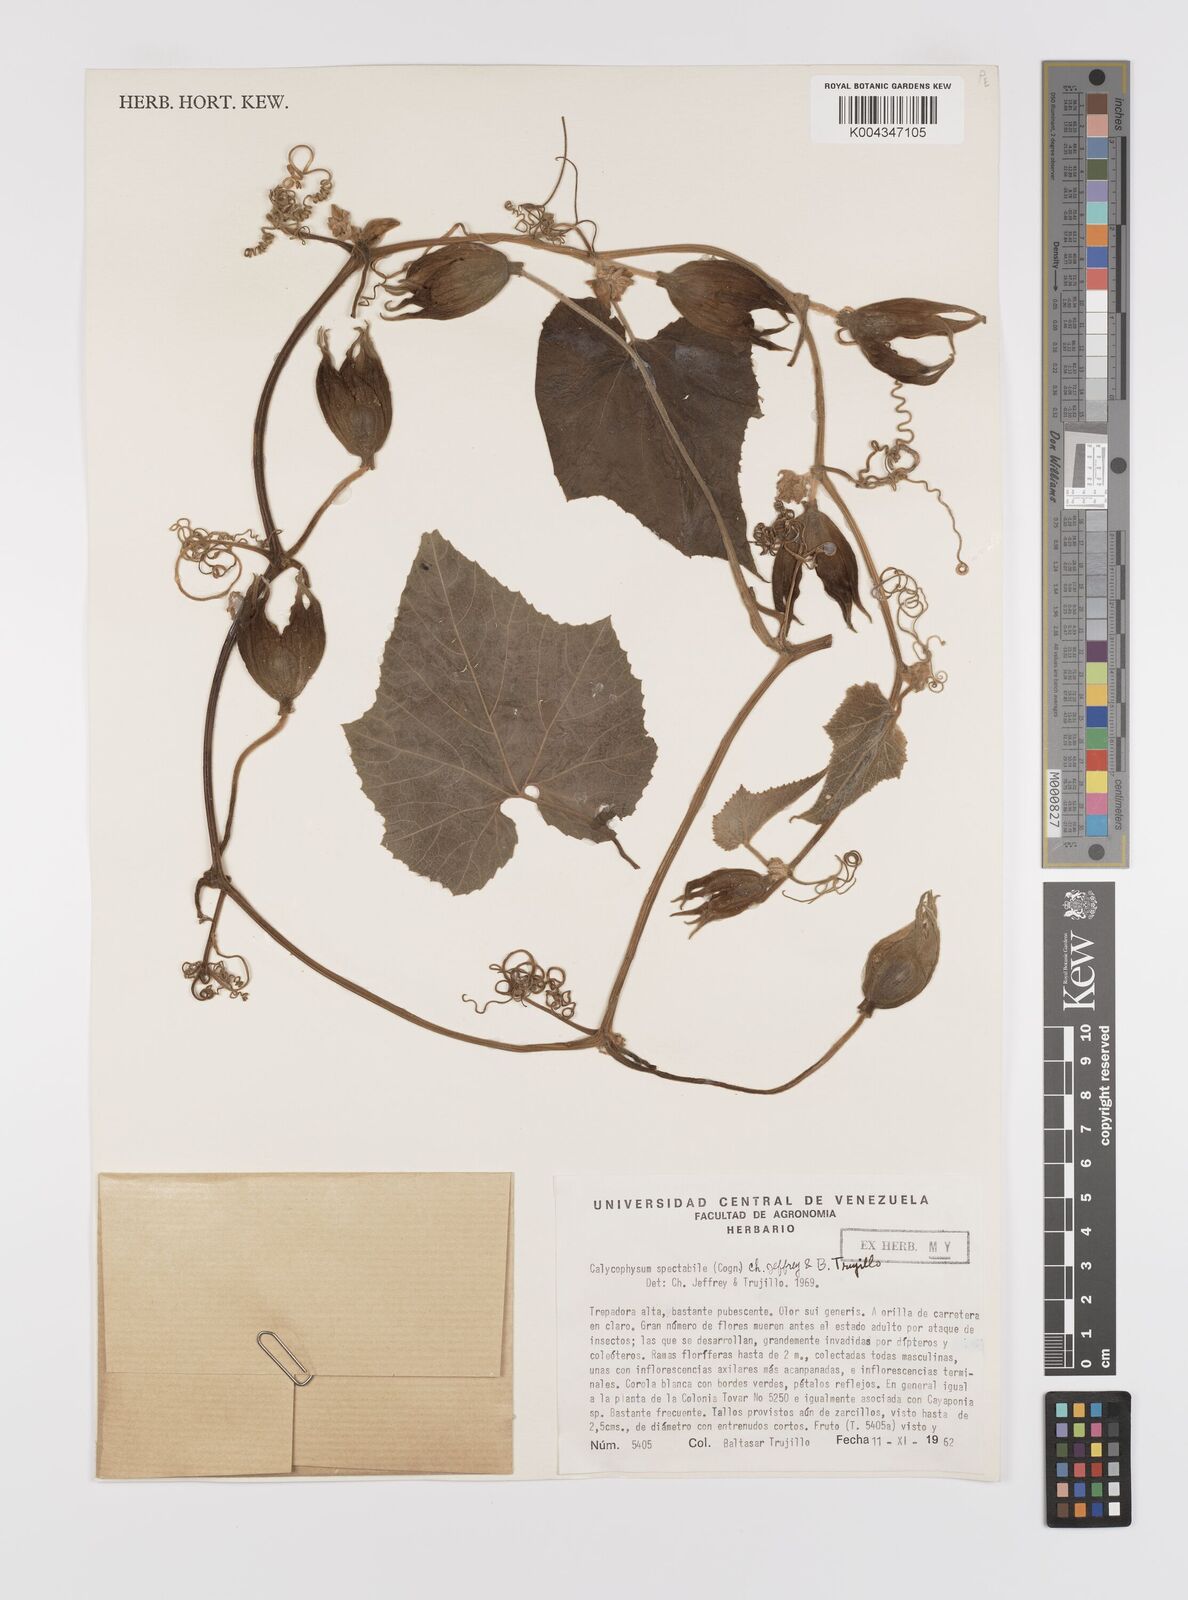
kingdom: Plantae
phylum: Tracheophyta
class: Magnoliopsida
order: Cucurbitales
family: Cucurbitaceae
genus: Calycophysum
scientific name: Calycophysum spectabile
